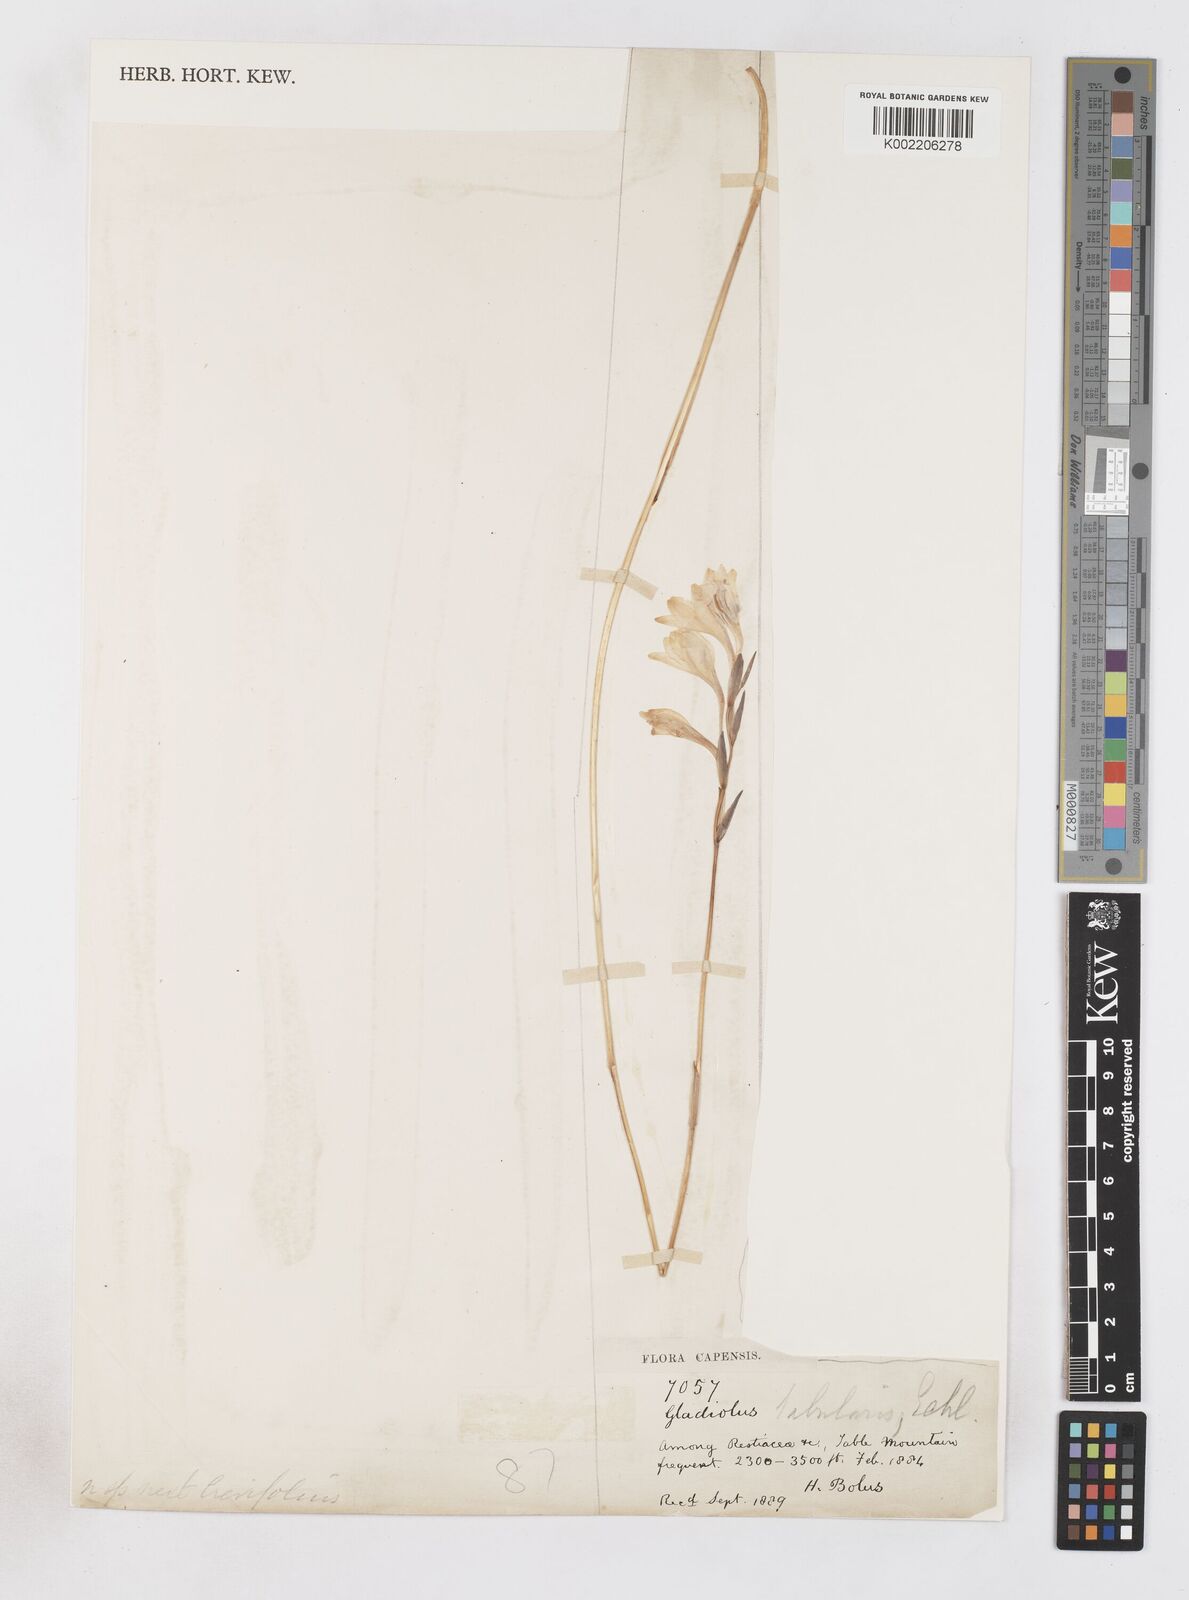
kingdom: Plantae
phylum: Tracheophyta
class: Liliopsida
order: Asparagales
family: Iridaceae
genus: Gladiolus
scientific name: Gladiolus
